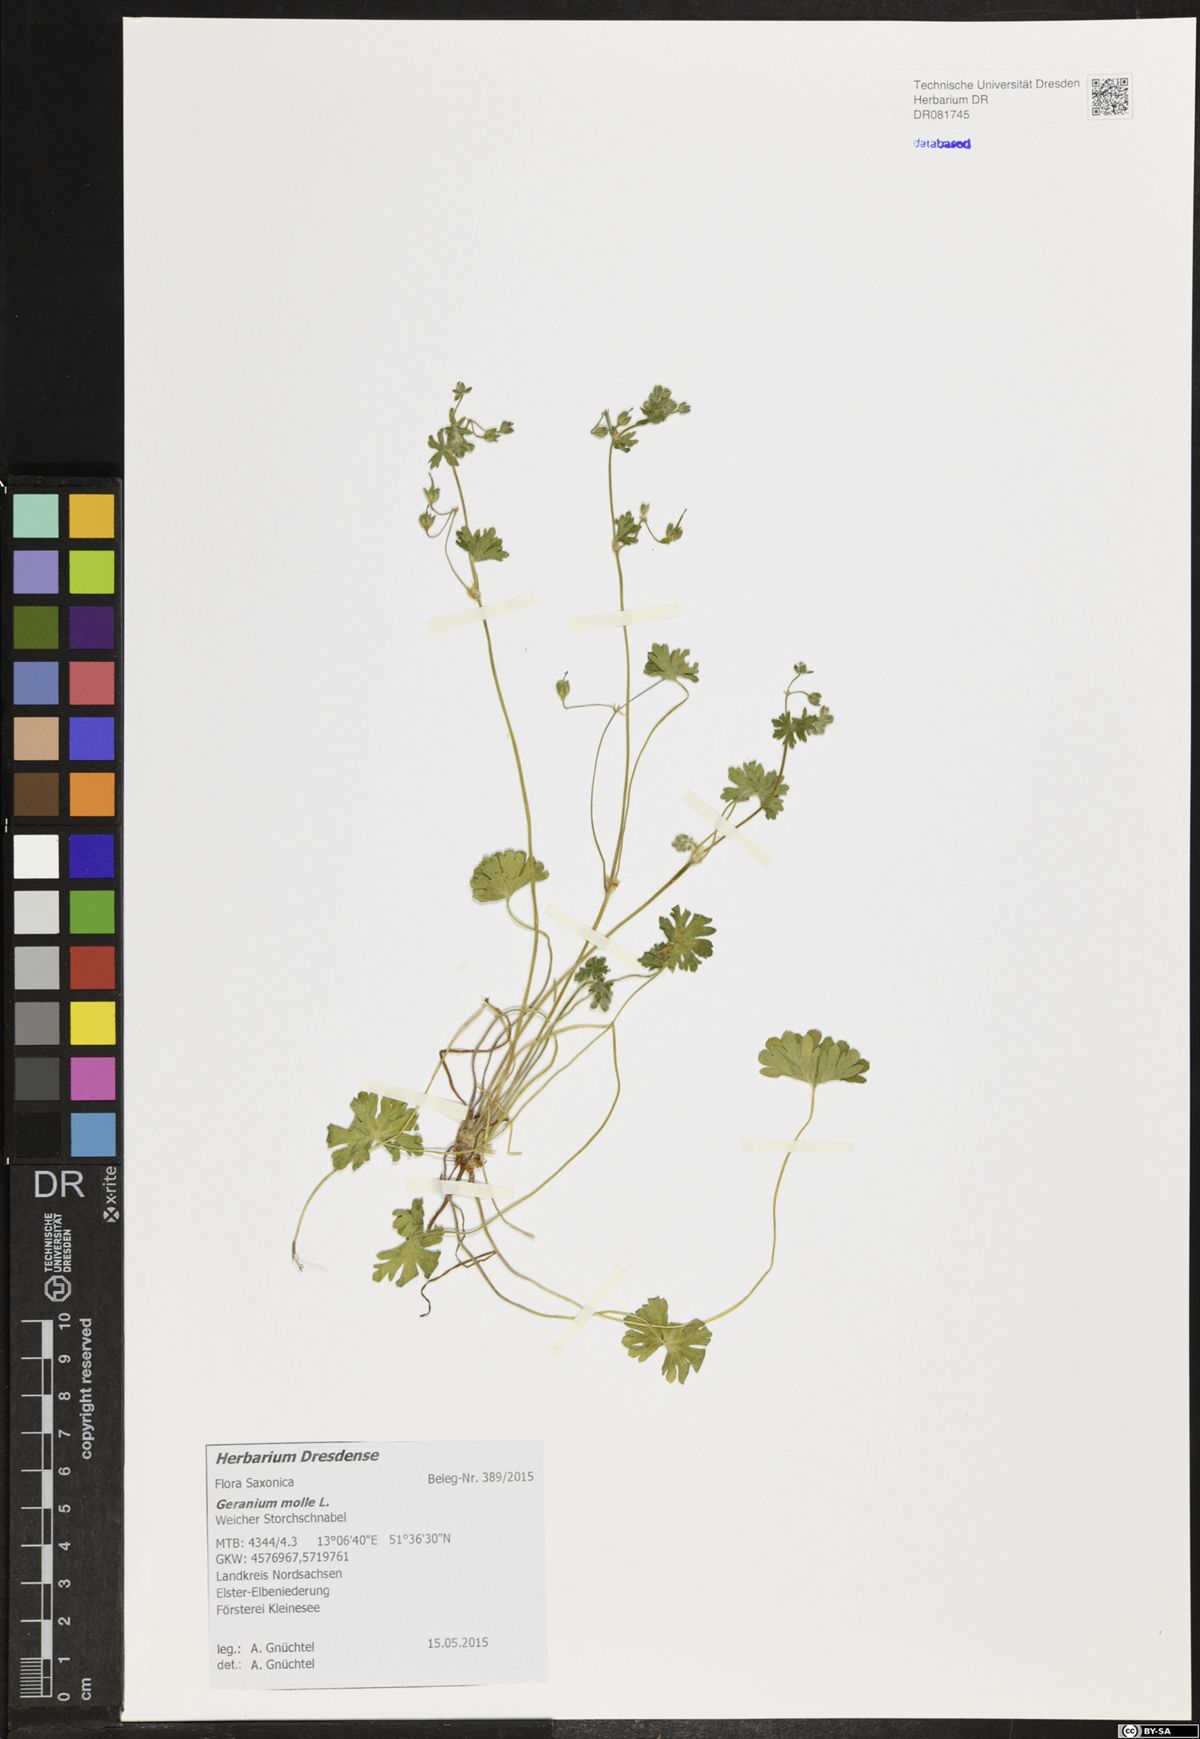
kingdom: Plantae
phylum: Tracheophyta
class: Magnoliopsida
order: Geraniales
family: Geraniaceae
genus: Geranium
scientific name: Geranium aequale
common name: Geranium
